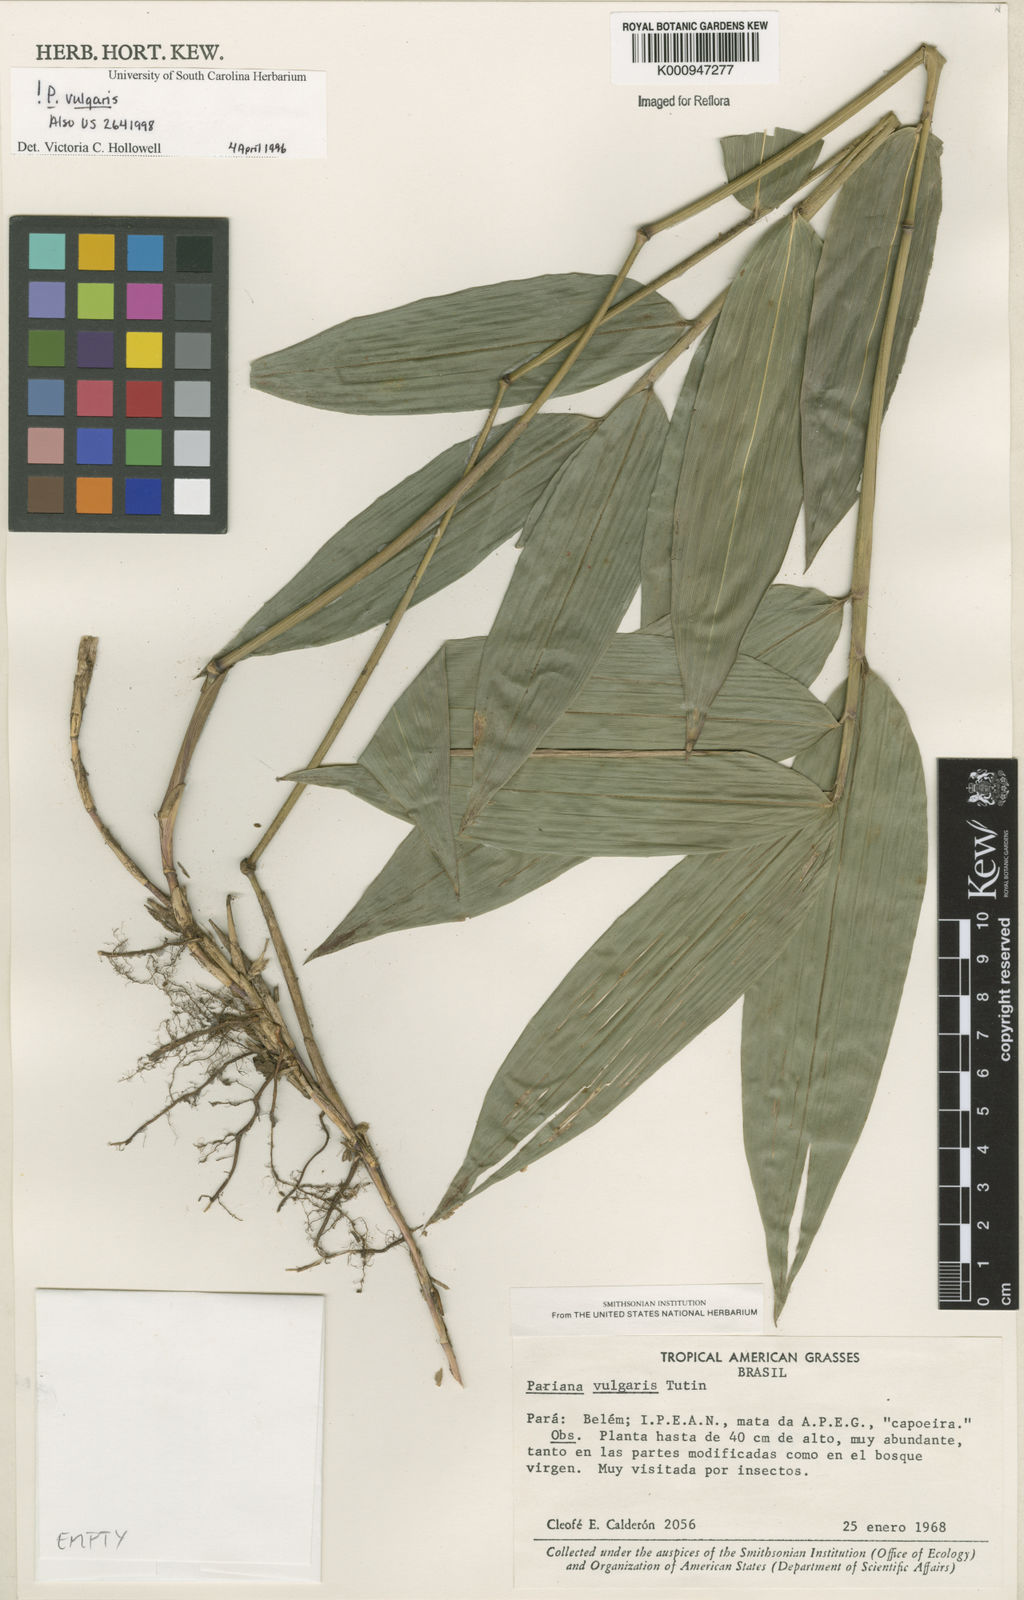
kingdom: Plantae
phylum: Tracheophyta
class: Liliopsida
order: Poales
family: Poaceae
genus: Pariana
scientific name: Pariana vulgaris
